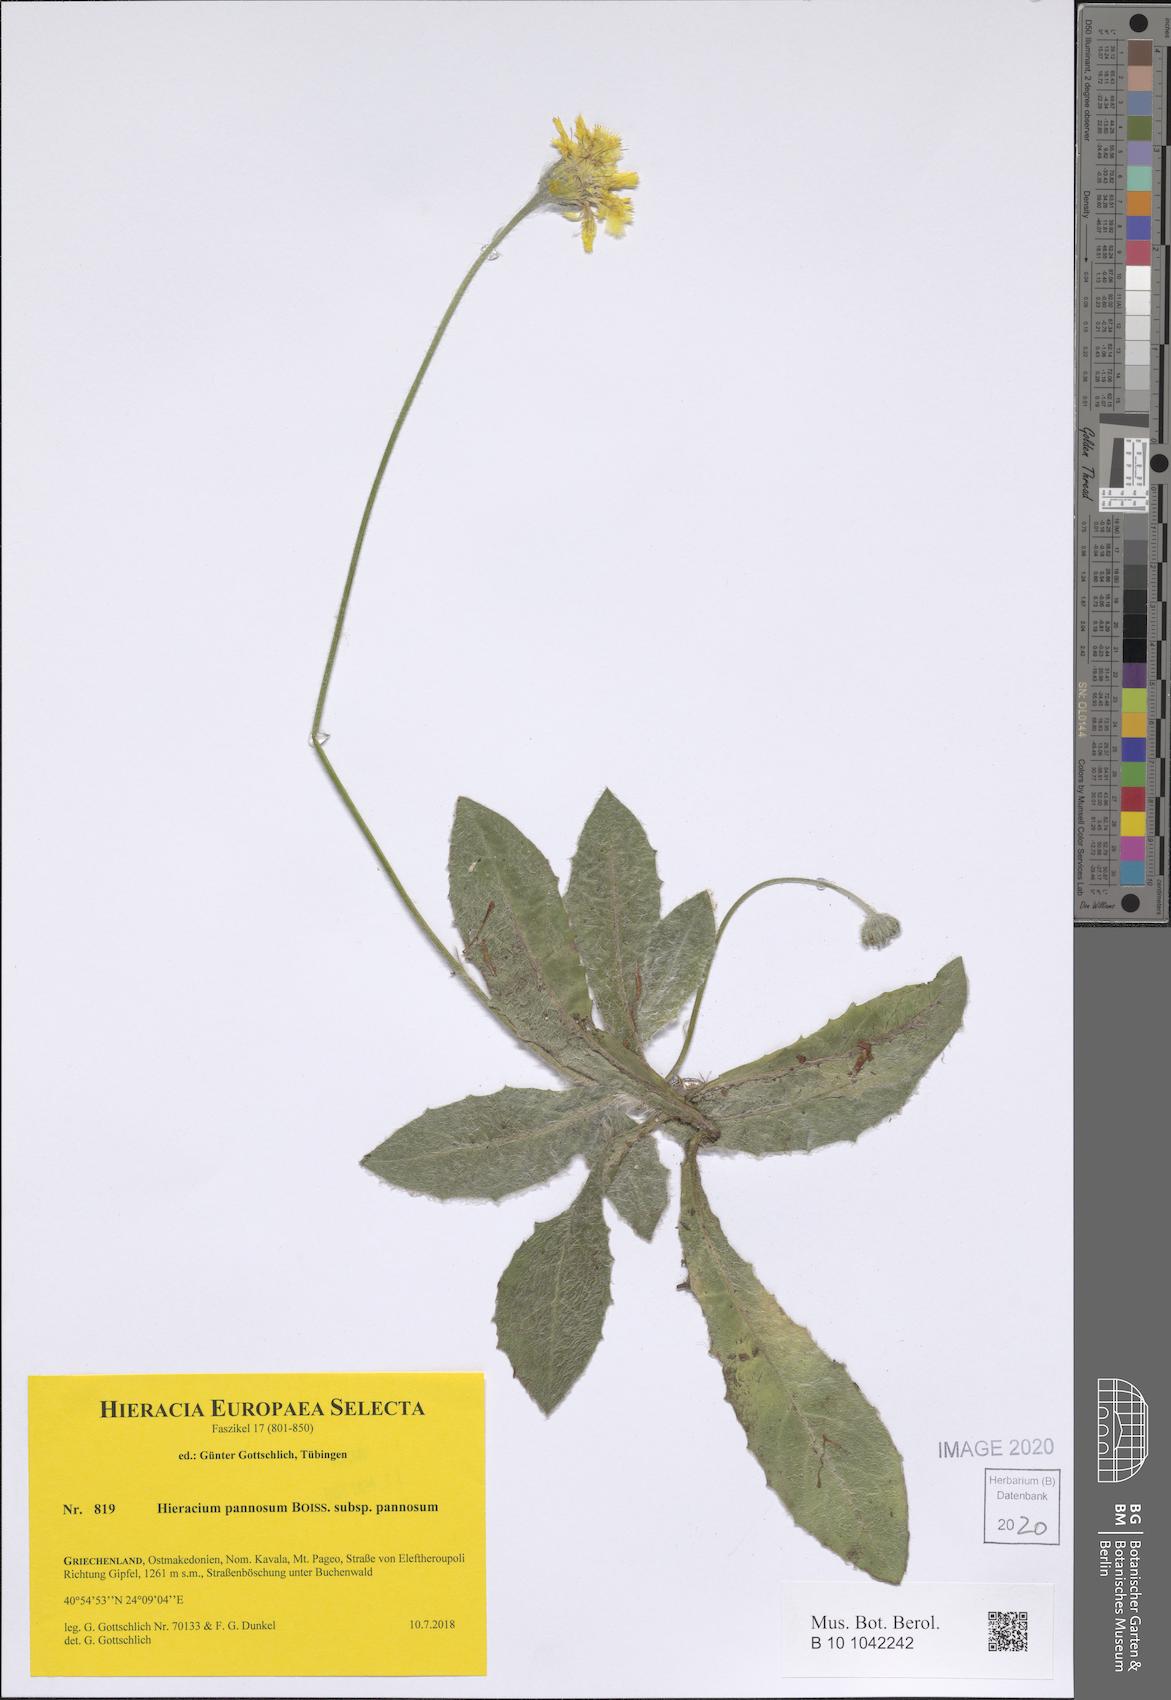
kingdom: Plantae
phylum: Tracheophyta
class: Magnoliopsida
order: Asterales
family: Asteraceae
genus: Hieracium
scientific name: Hieracium pannosum
